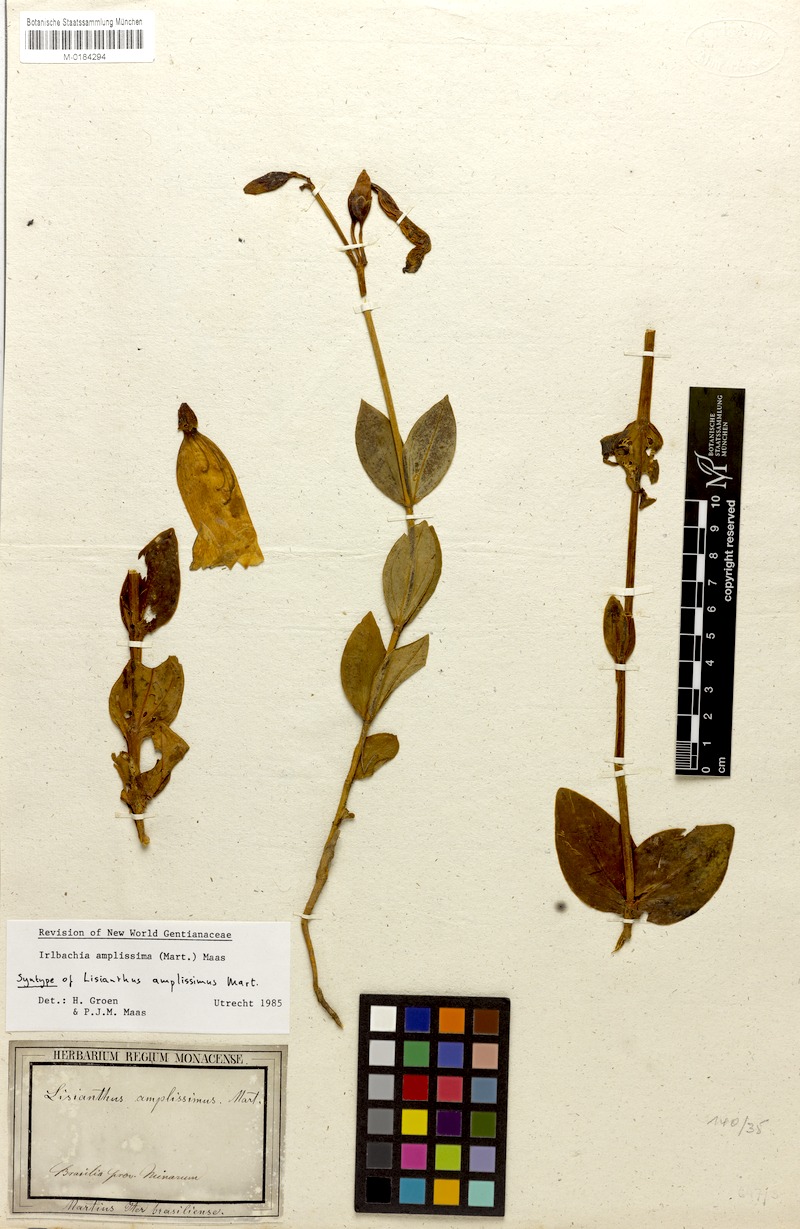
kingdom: Plantae
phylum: Tracheophyta
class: Magnoliopsida
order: Gentianales
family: Gentianaceae
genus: Calolisianthus
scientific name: Calolisianthus amplissimus
